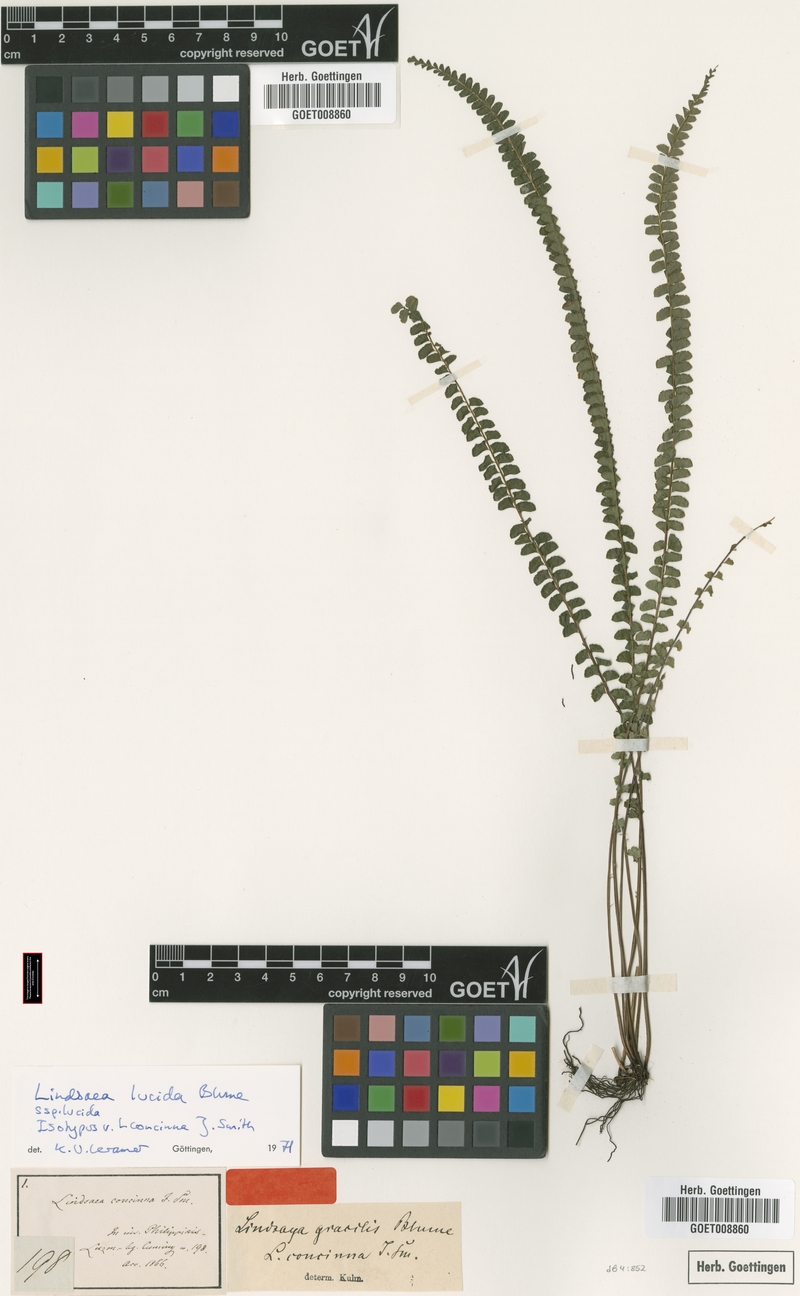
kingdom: Plantae
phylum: Tracheophyta
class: Polypodiopsida
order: Polypodiales
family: Lindsaeaceae
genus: Lindsaea
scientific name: Lindsaea lucida
